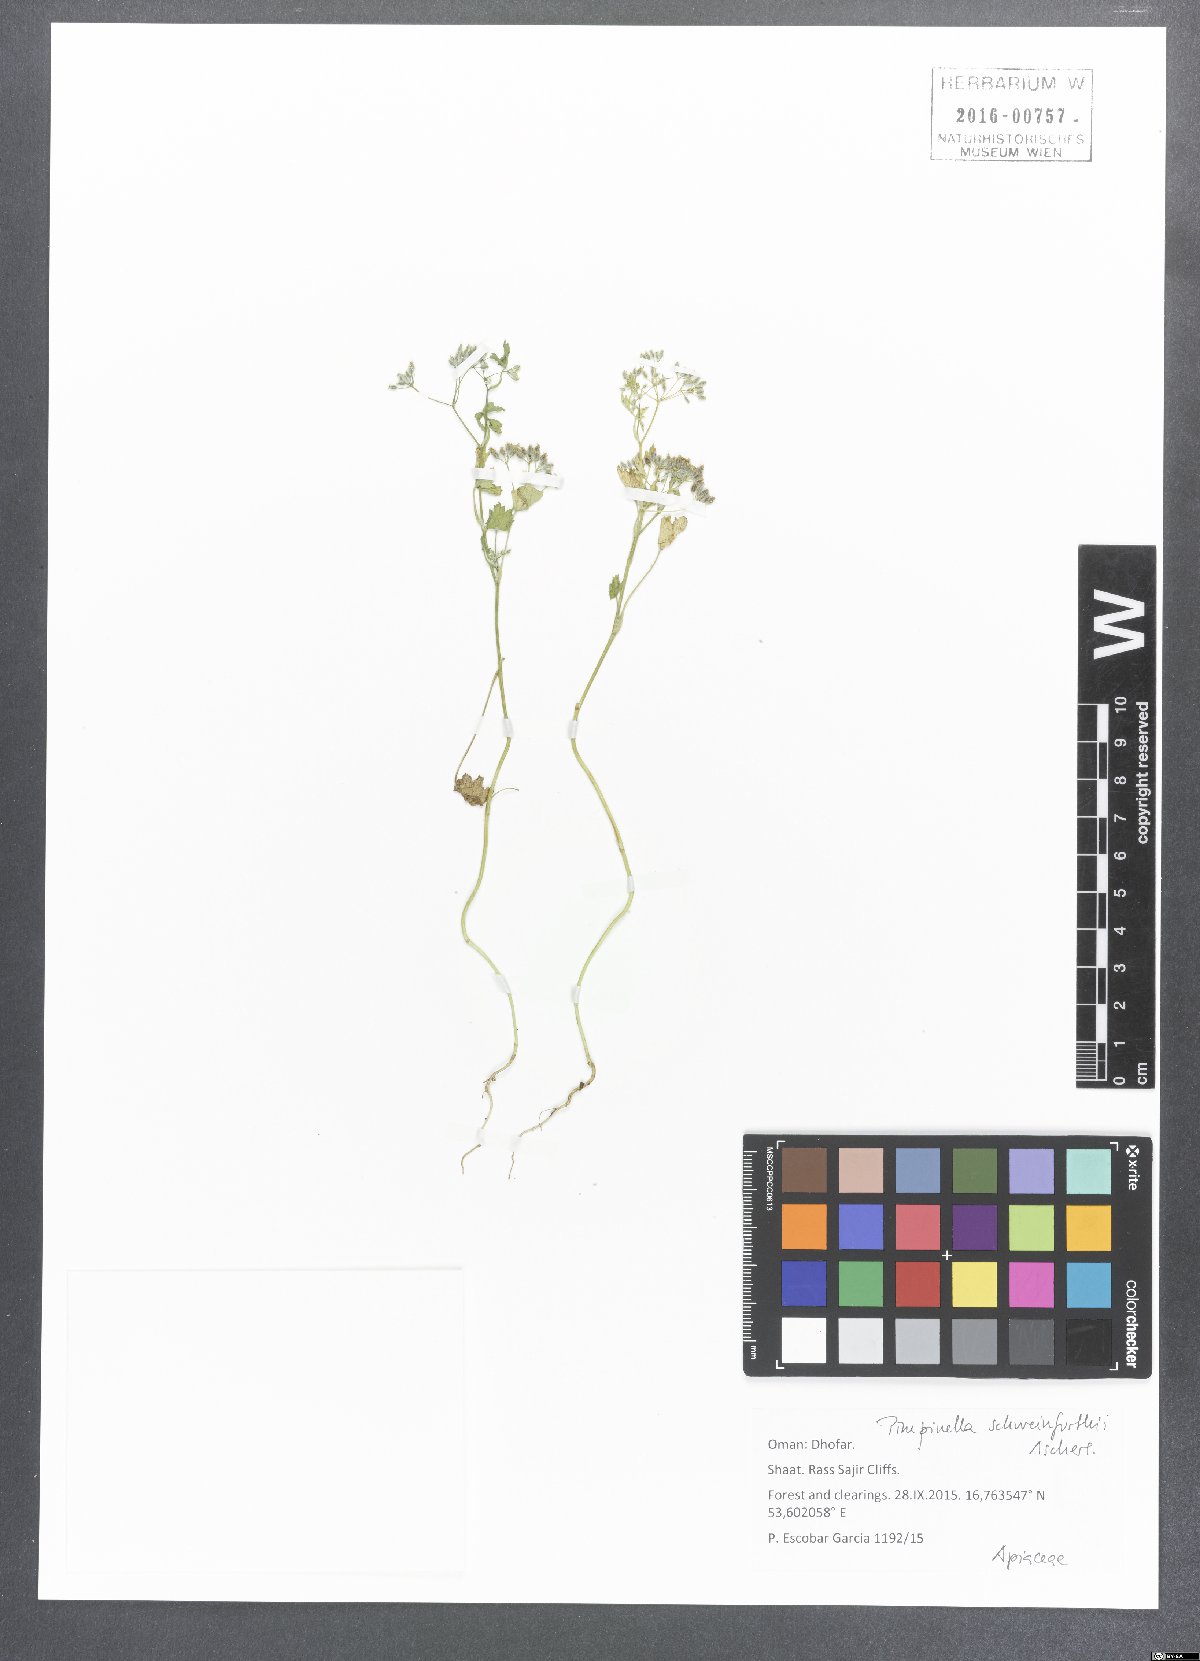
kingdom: Plantae
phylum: Tracheophyta
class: Magnoliopsida
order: Apiales
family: Apiaceae
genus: Pimpinella
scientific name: Pimpinella schweinfurthii
